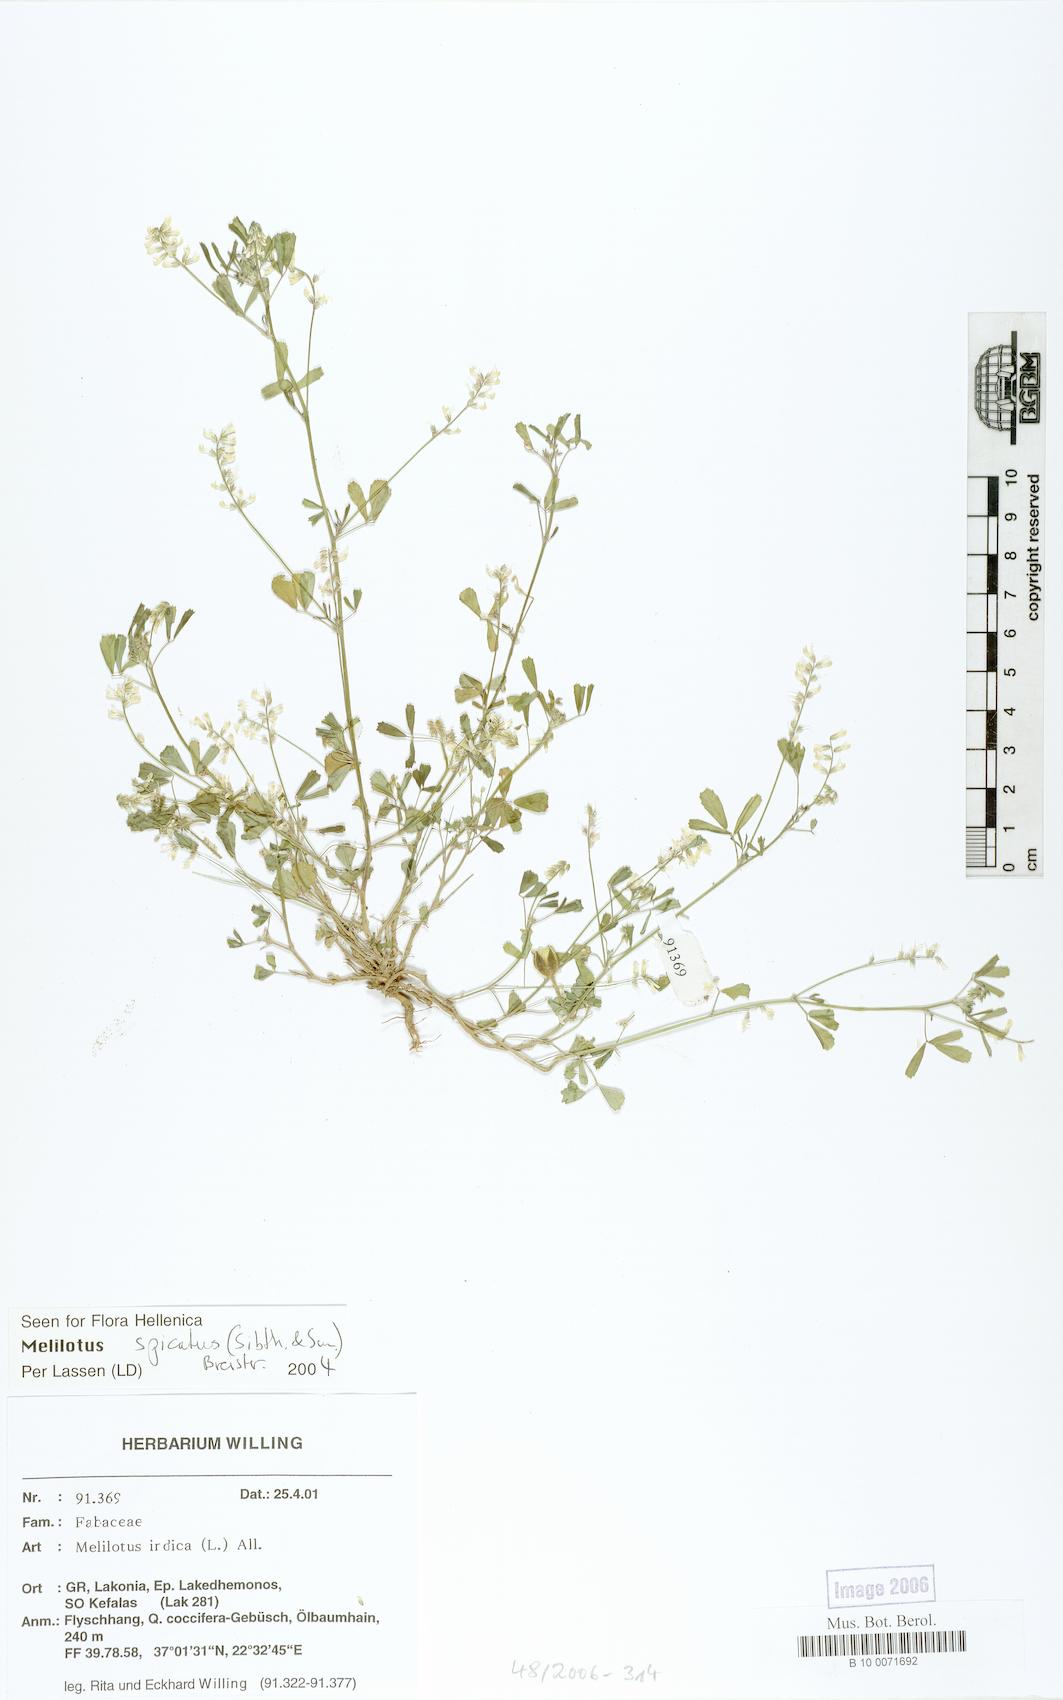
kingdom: Plantae
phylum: Tracheophyta
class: Magnoliopsida
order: Fabales
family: Fabaceae
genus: Melilotus
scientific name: Melilotus indicus
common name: Small melilot
